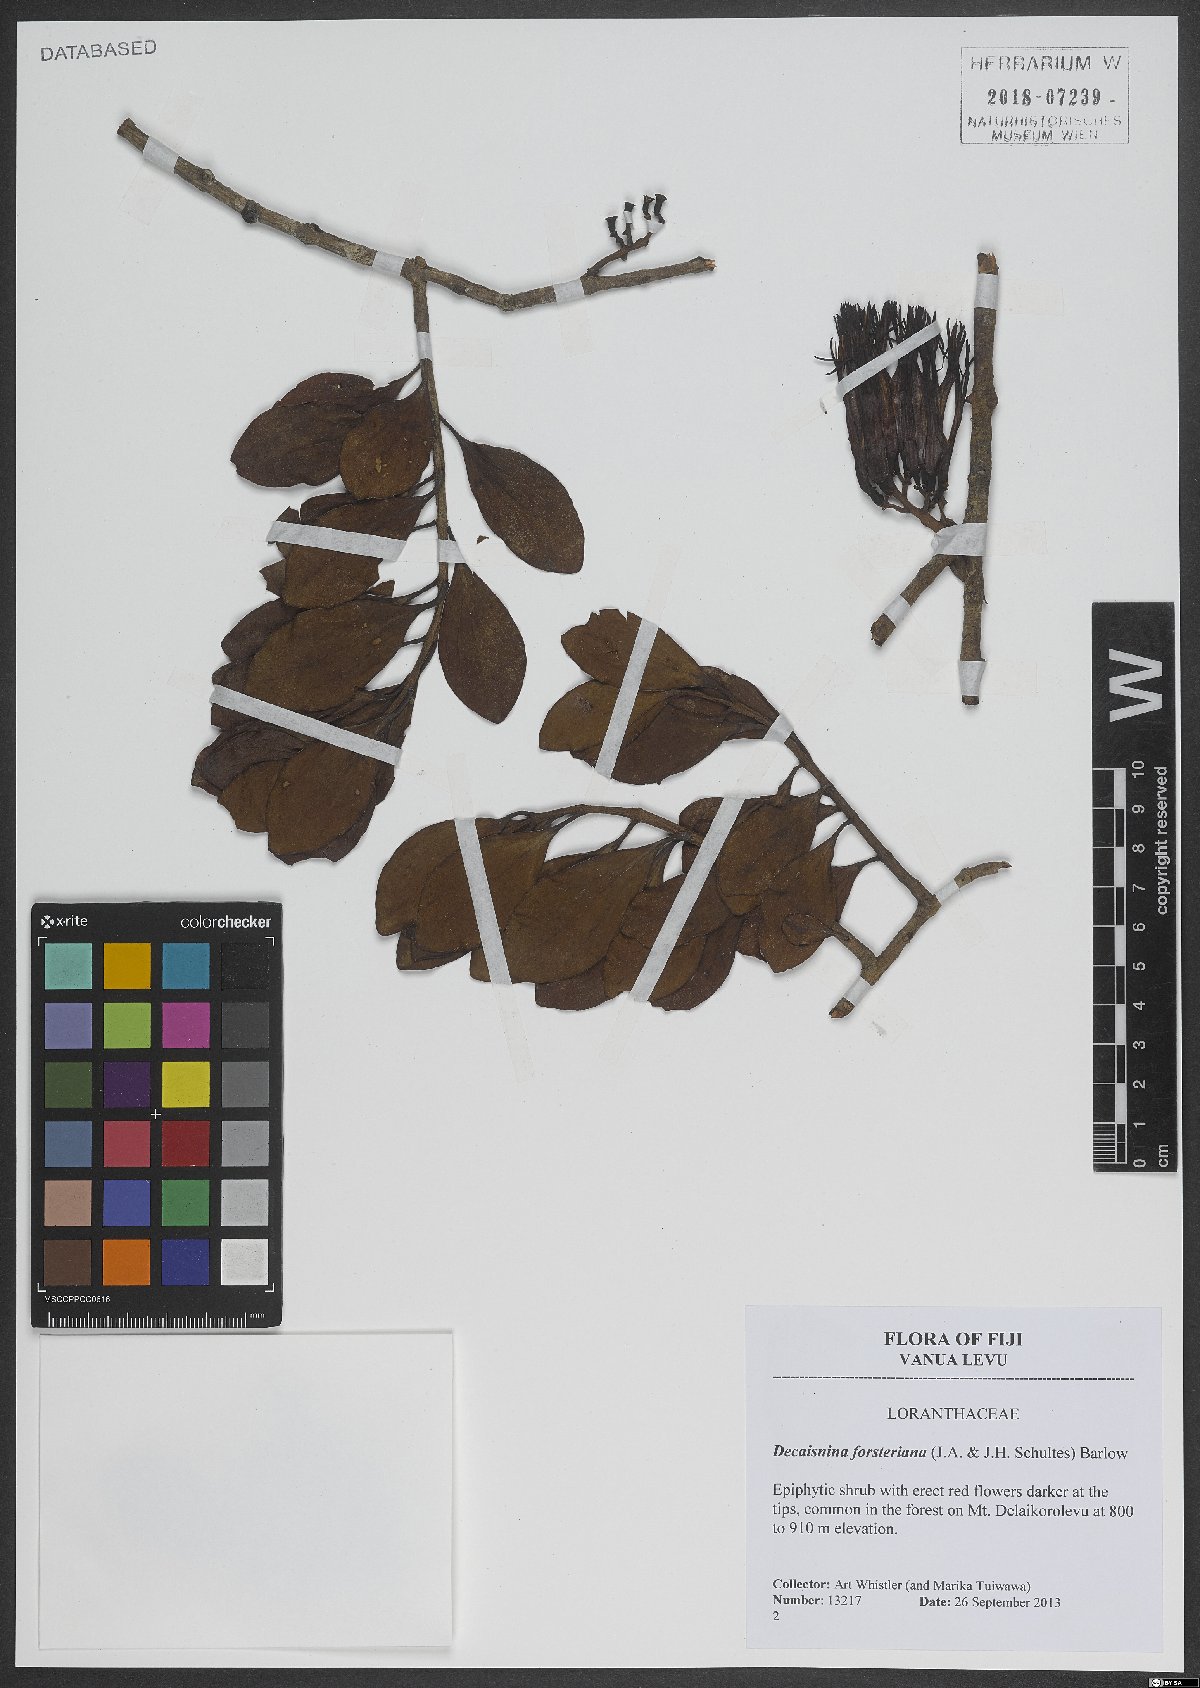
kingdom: Plantae
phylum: Tracheophyta
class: Magnoliopsida
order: Santalales
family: Loranthaceae
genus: Decaisnina
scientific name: Decaisnina forsteriana
